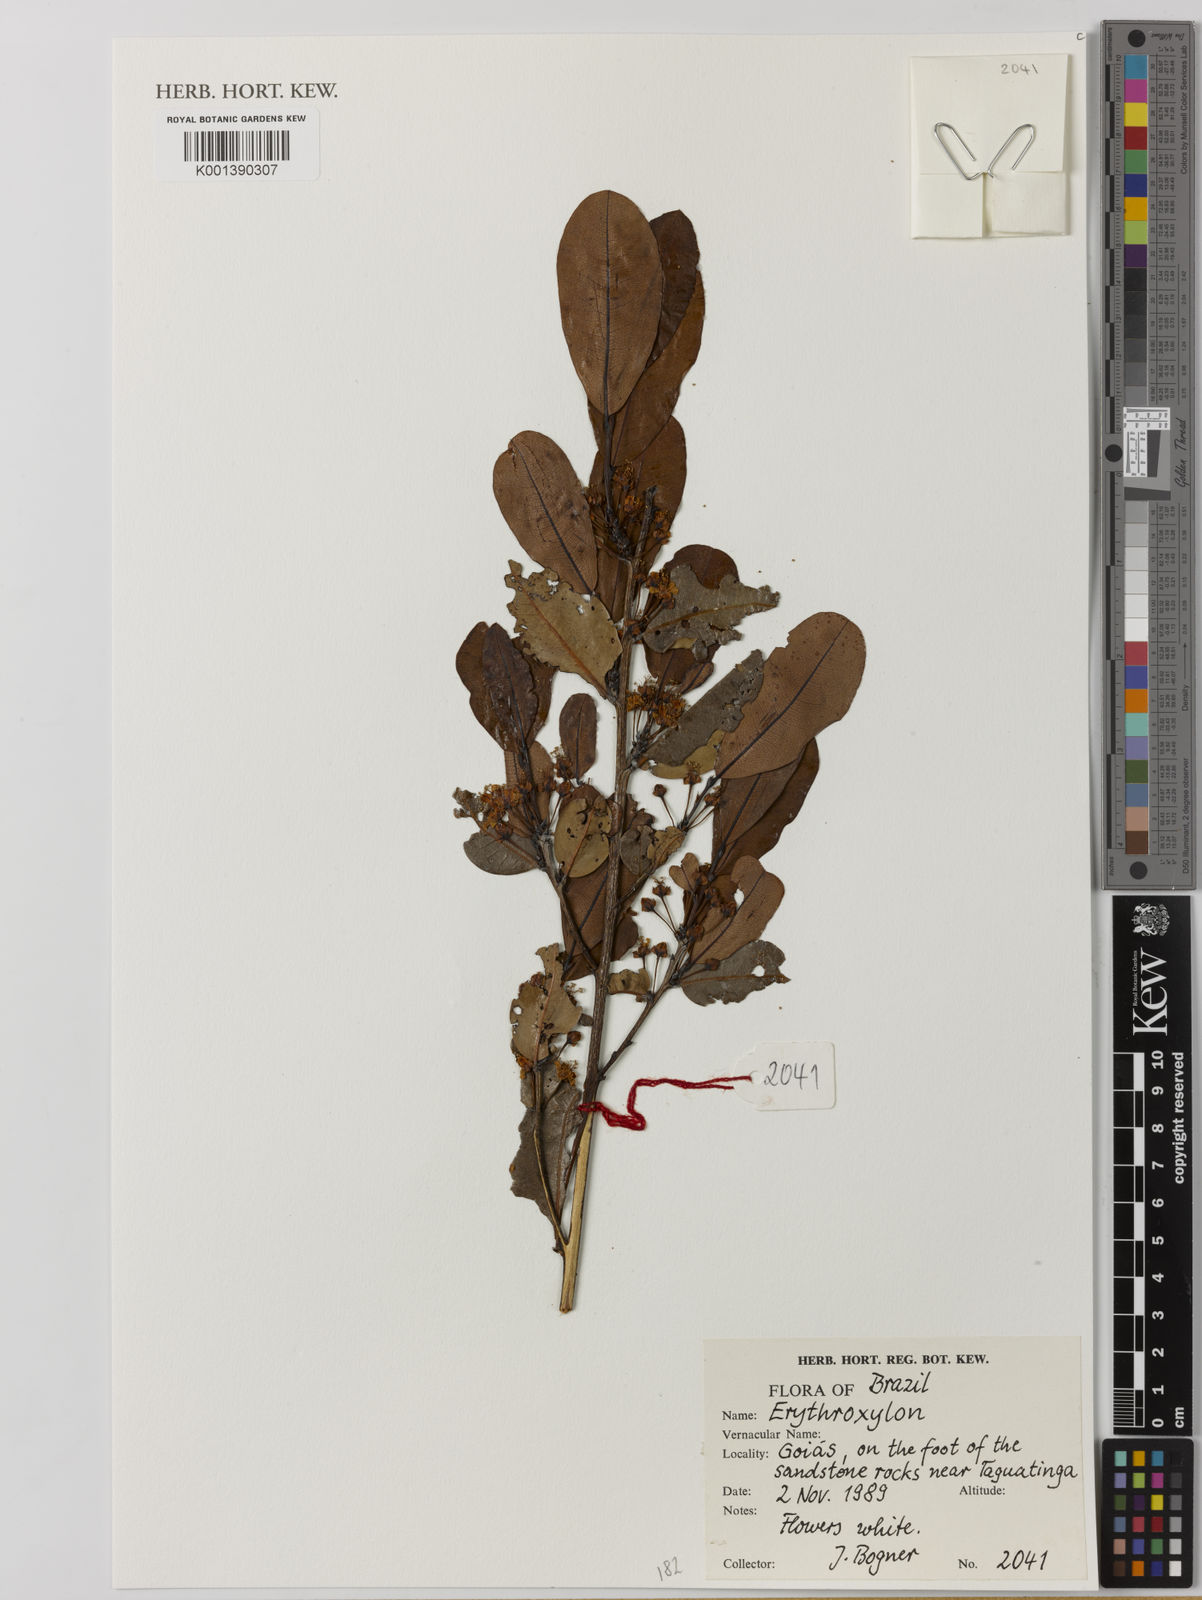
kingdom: Plantae
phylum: Tracheophyta
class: Magnoliopsida
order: Malpighiales
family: Erythroxylaceae
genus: Erythroxylum
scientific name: Erythroxylum
